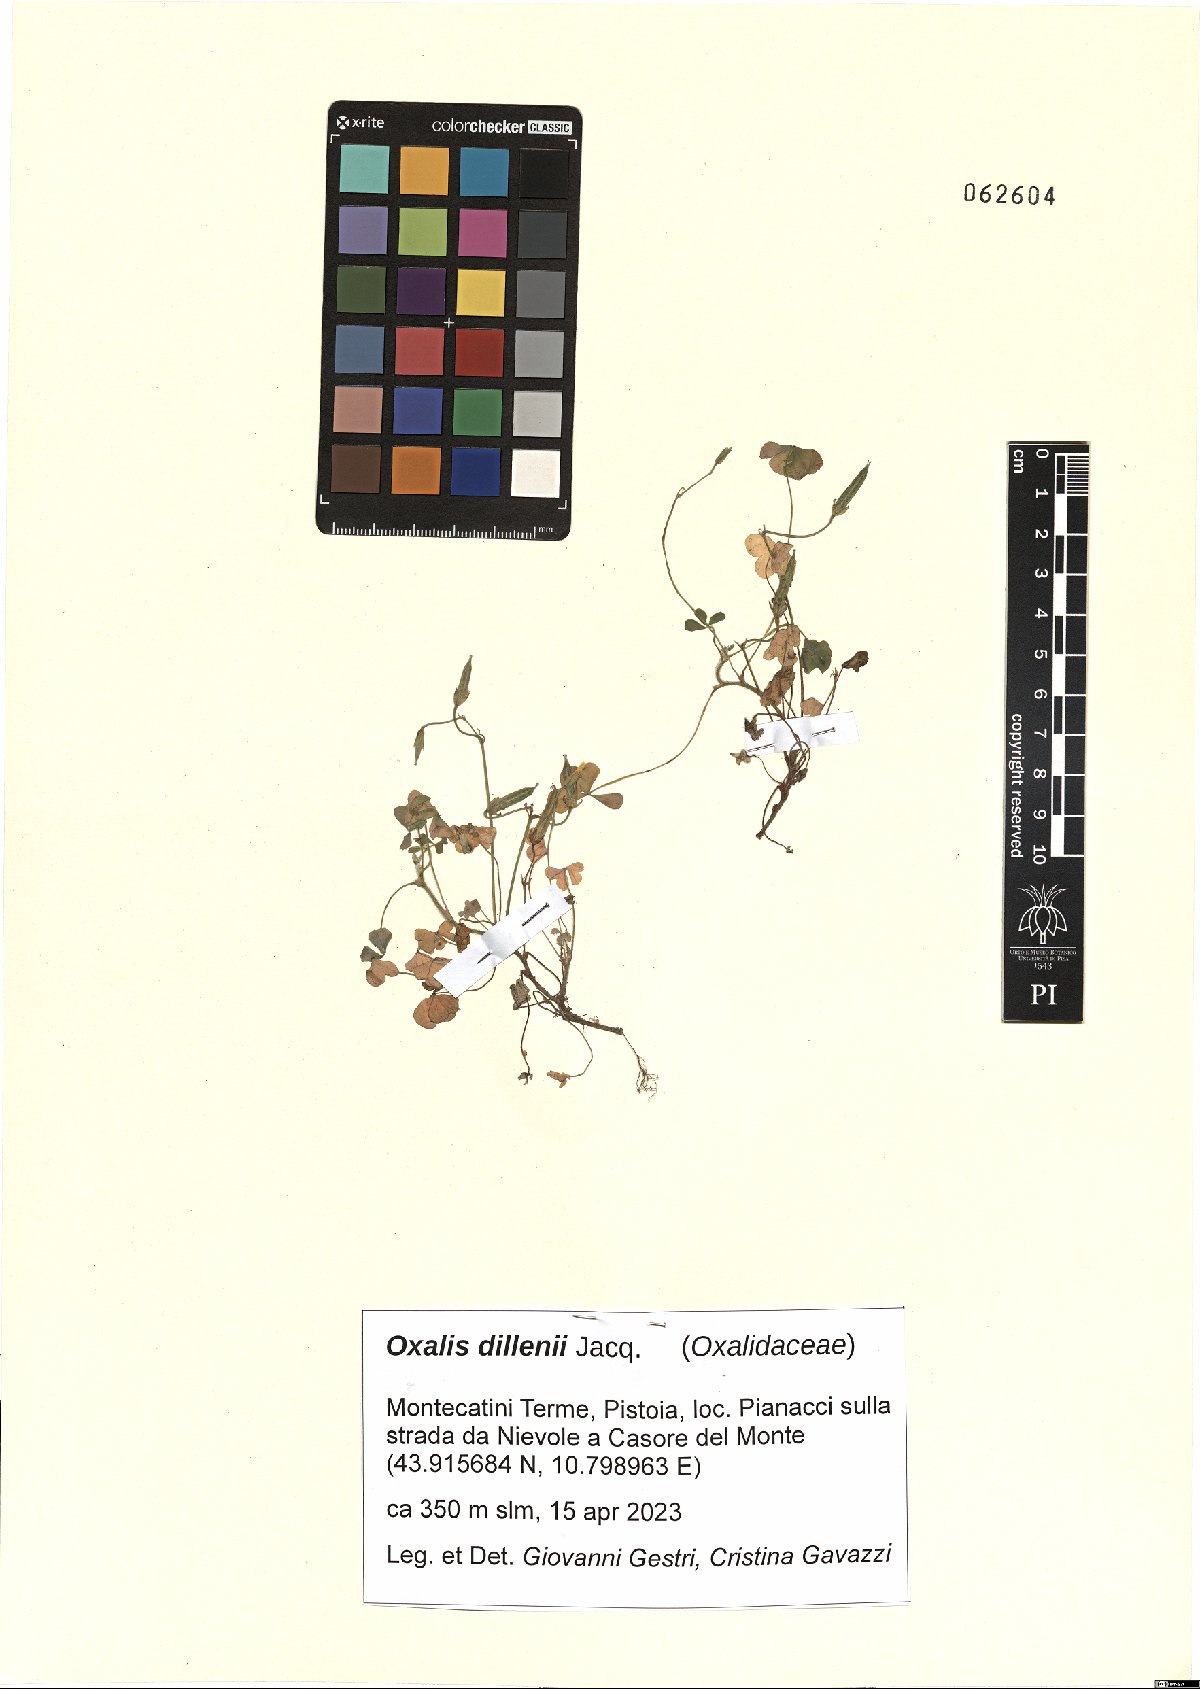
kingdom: Plantae
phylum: Tracheophyta
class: Magnoliopsida
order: Oxalidales
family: Oxalidaceae
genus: Oxalis
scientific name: Oxalis dillenii
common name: Sussex yellow-sorrel
